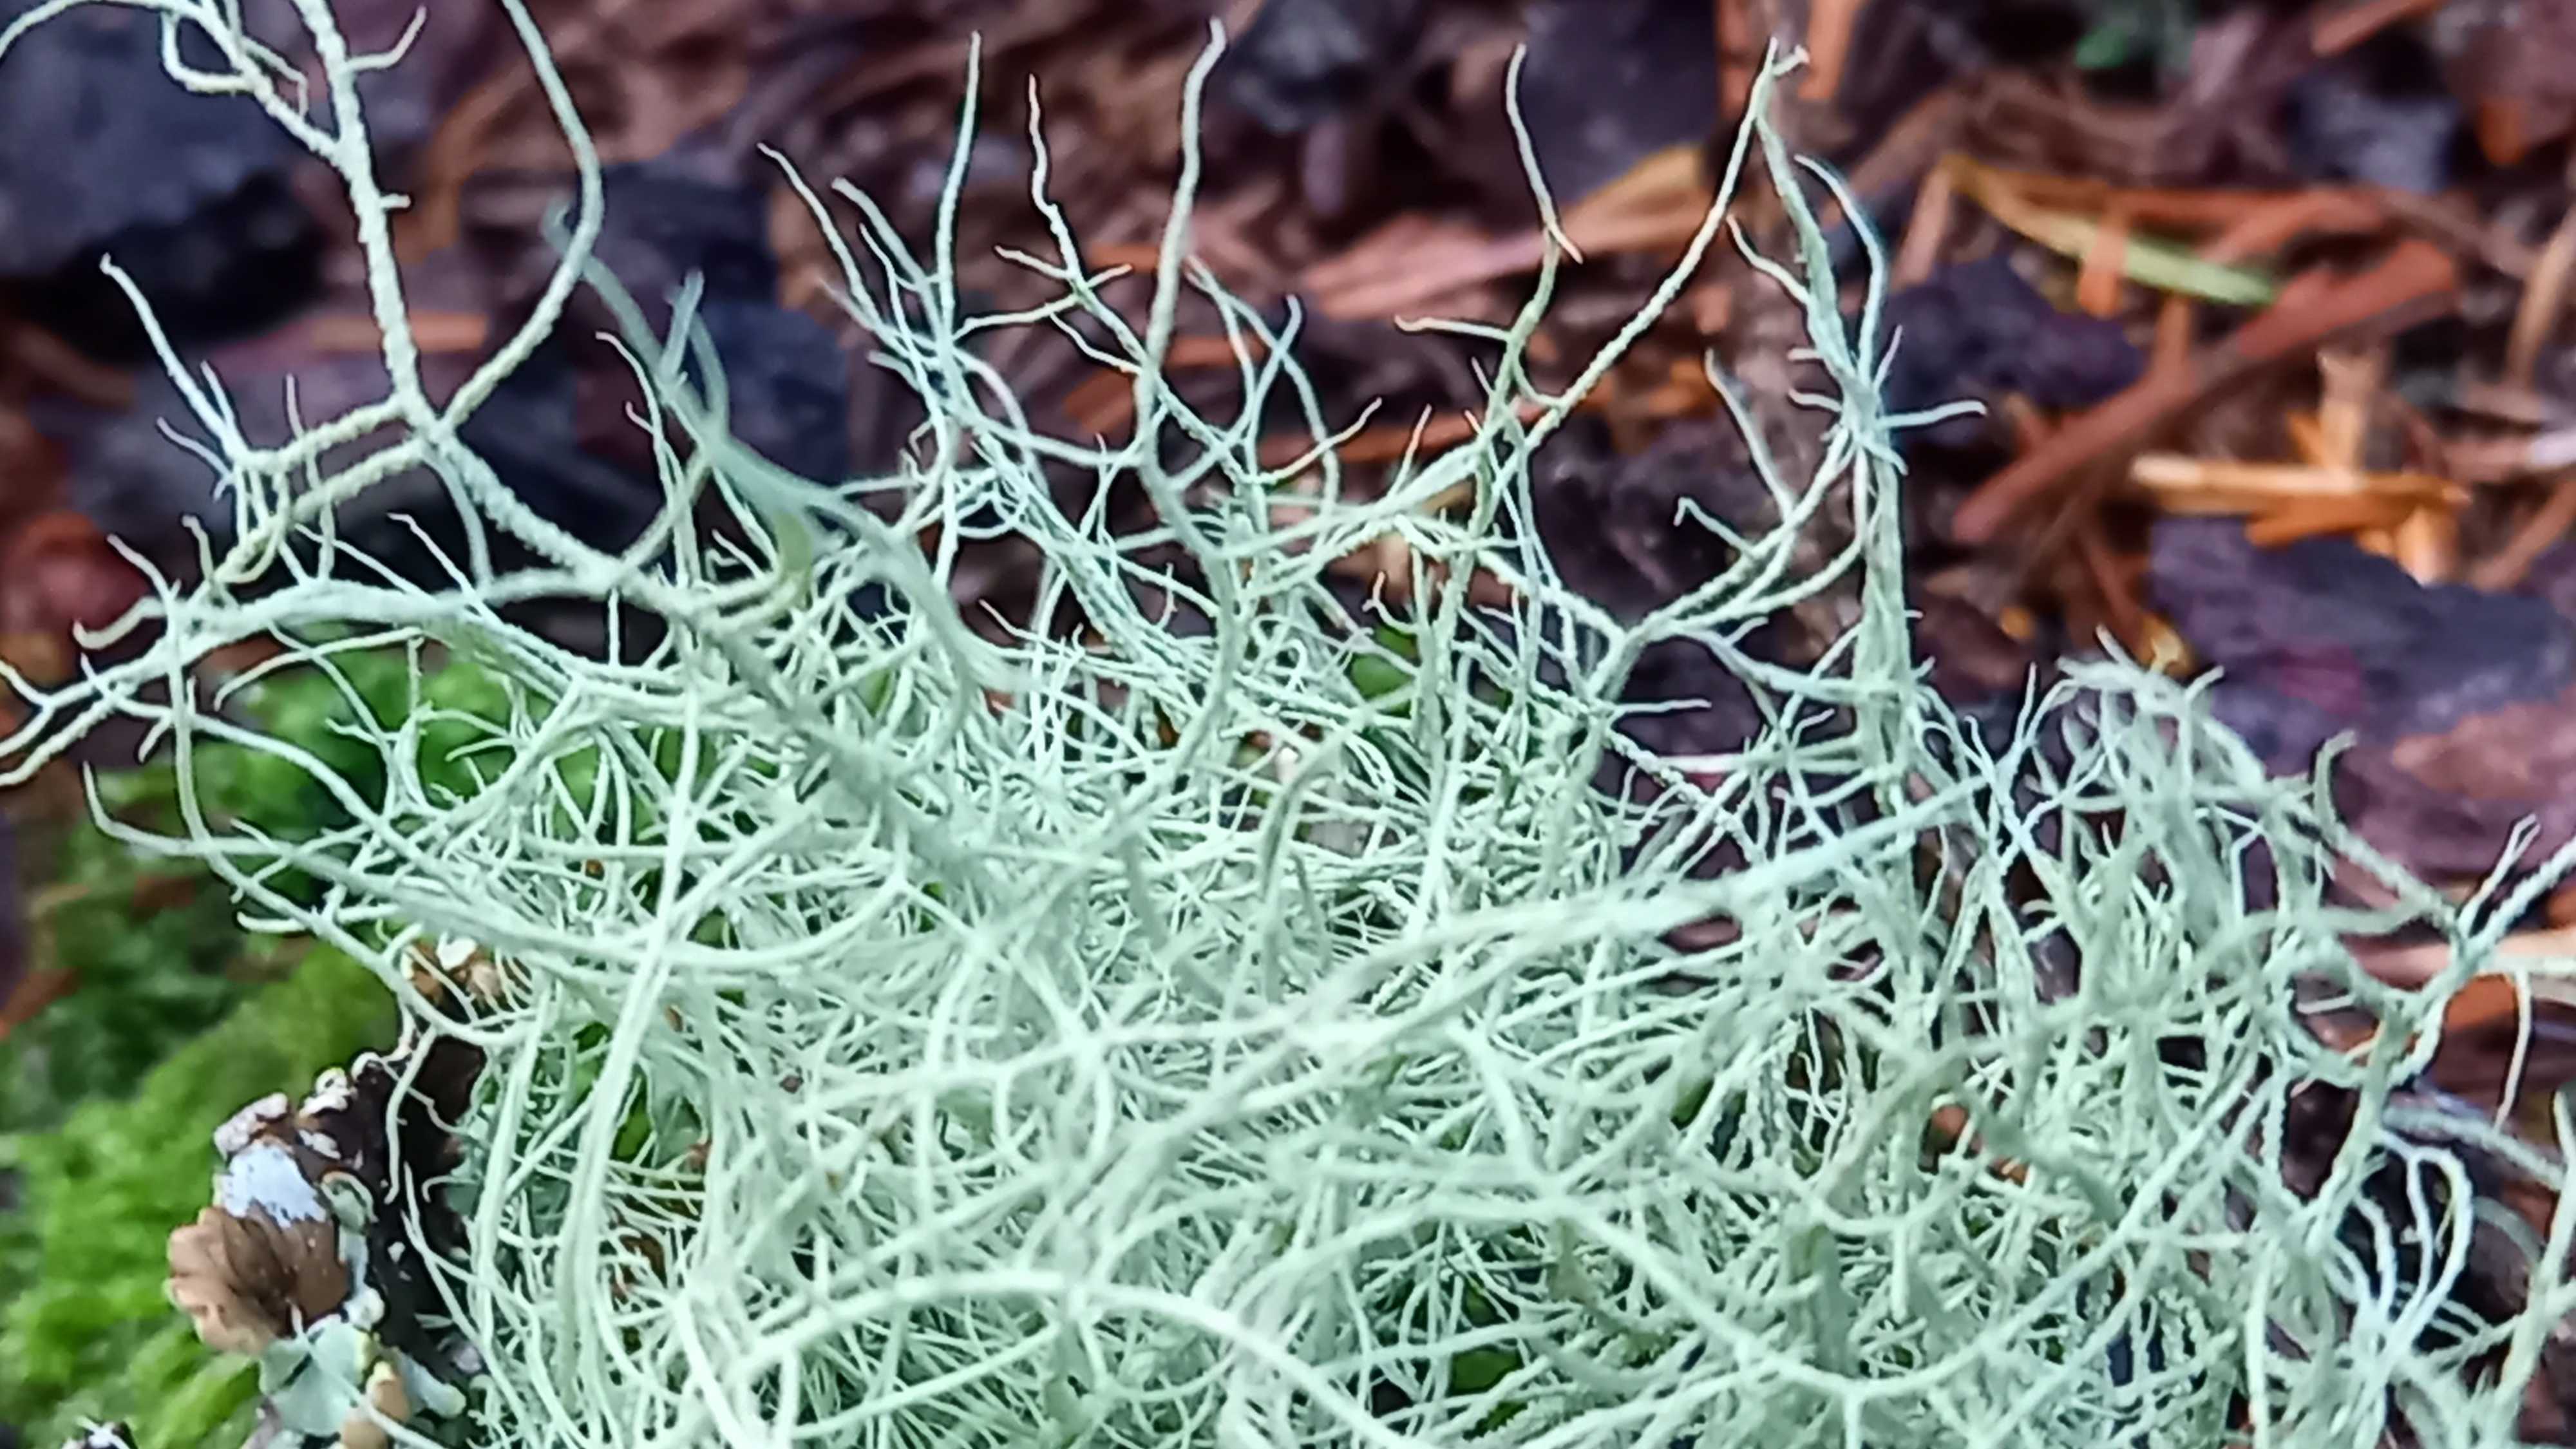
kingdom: Fungi
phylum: Ascomycota
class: Lecanoromycetes
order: Lecanorales
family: Parmeliaceae
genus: Usnea
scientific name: Usnea
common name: skæglav
